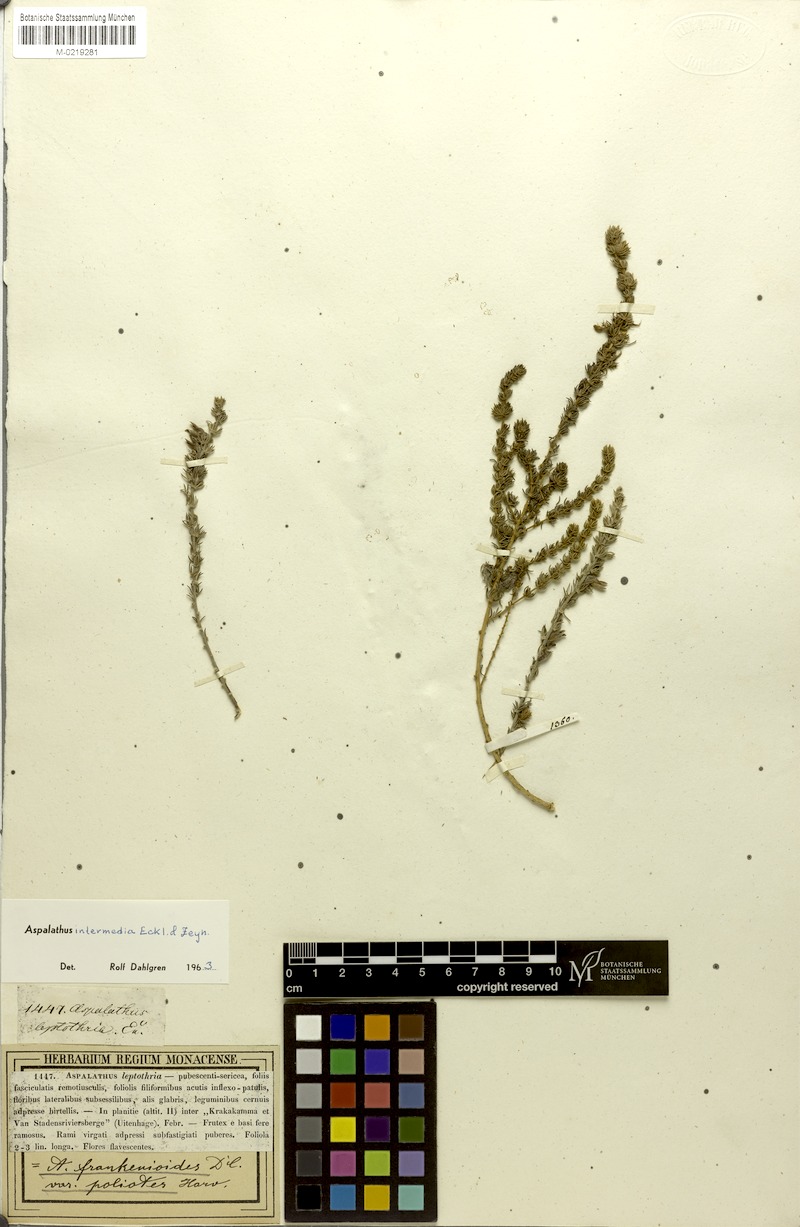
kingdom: Plantae
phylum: Tracheophyta
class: Magnoliopsida
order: Fabales
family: Fabaceae
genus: Aspalathus
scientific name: Aspalathus intermedia
